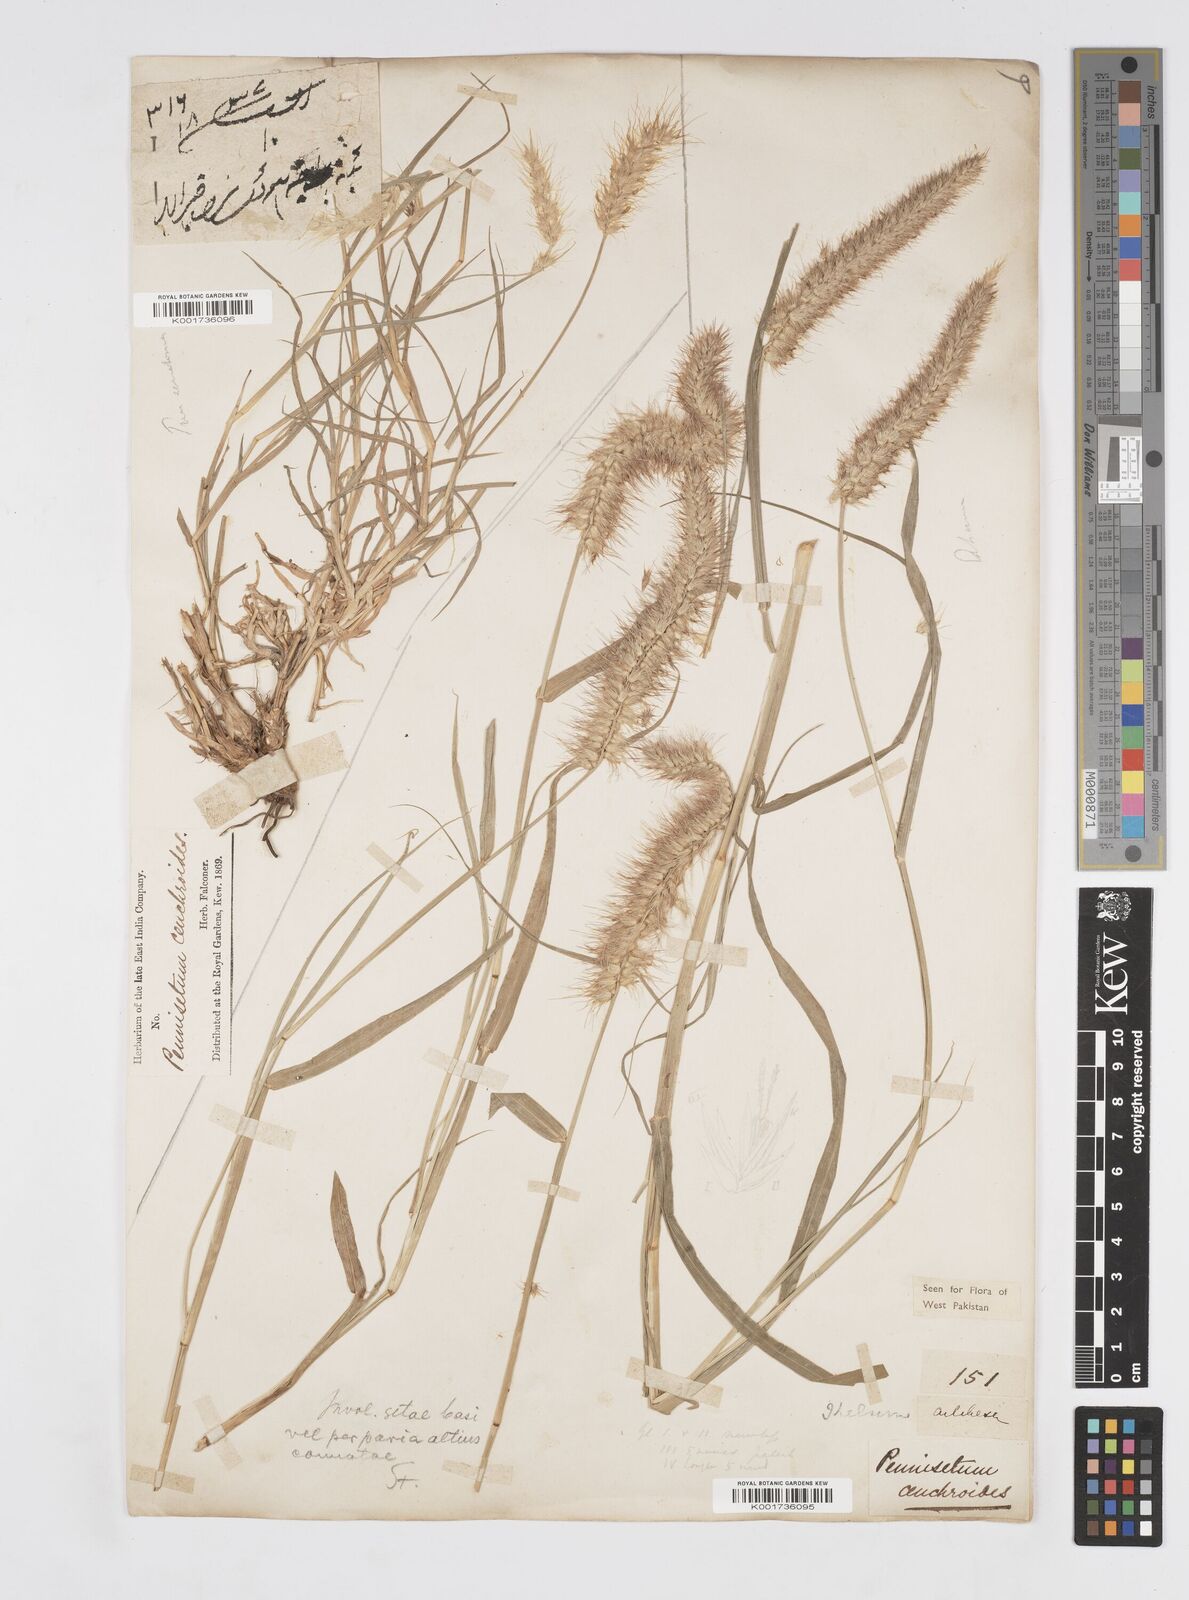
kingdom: Plantae
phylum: Tracheophyta
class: Liliopsida
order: Poales
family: Poaceae
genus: Cenchrus
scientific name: Cenchrus ciliaris
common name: Buffelgrass
